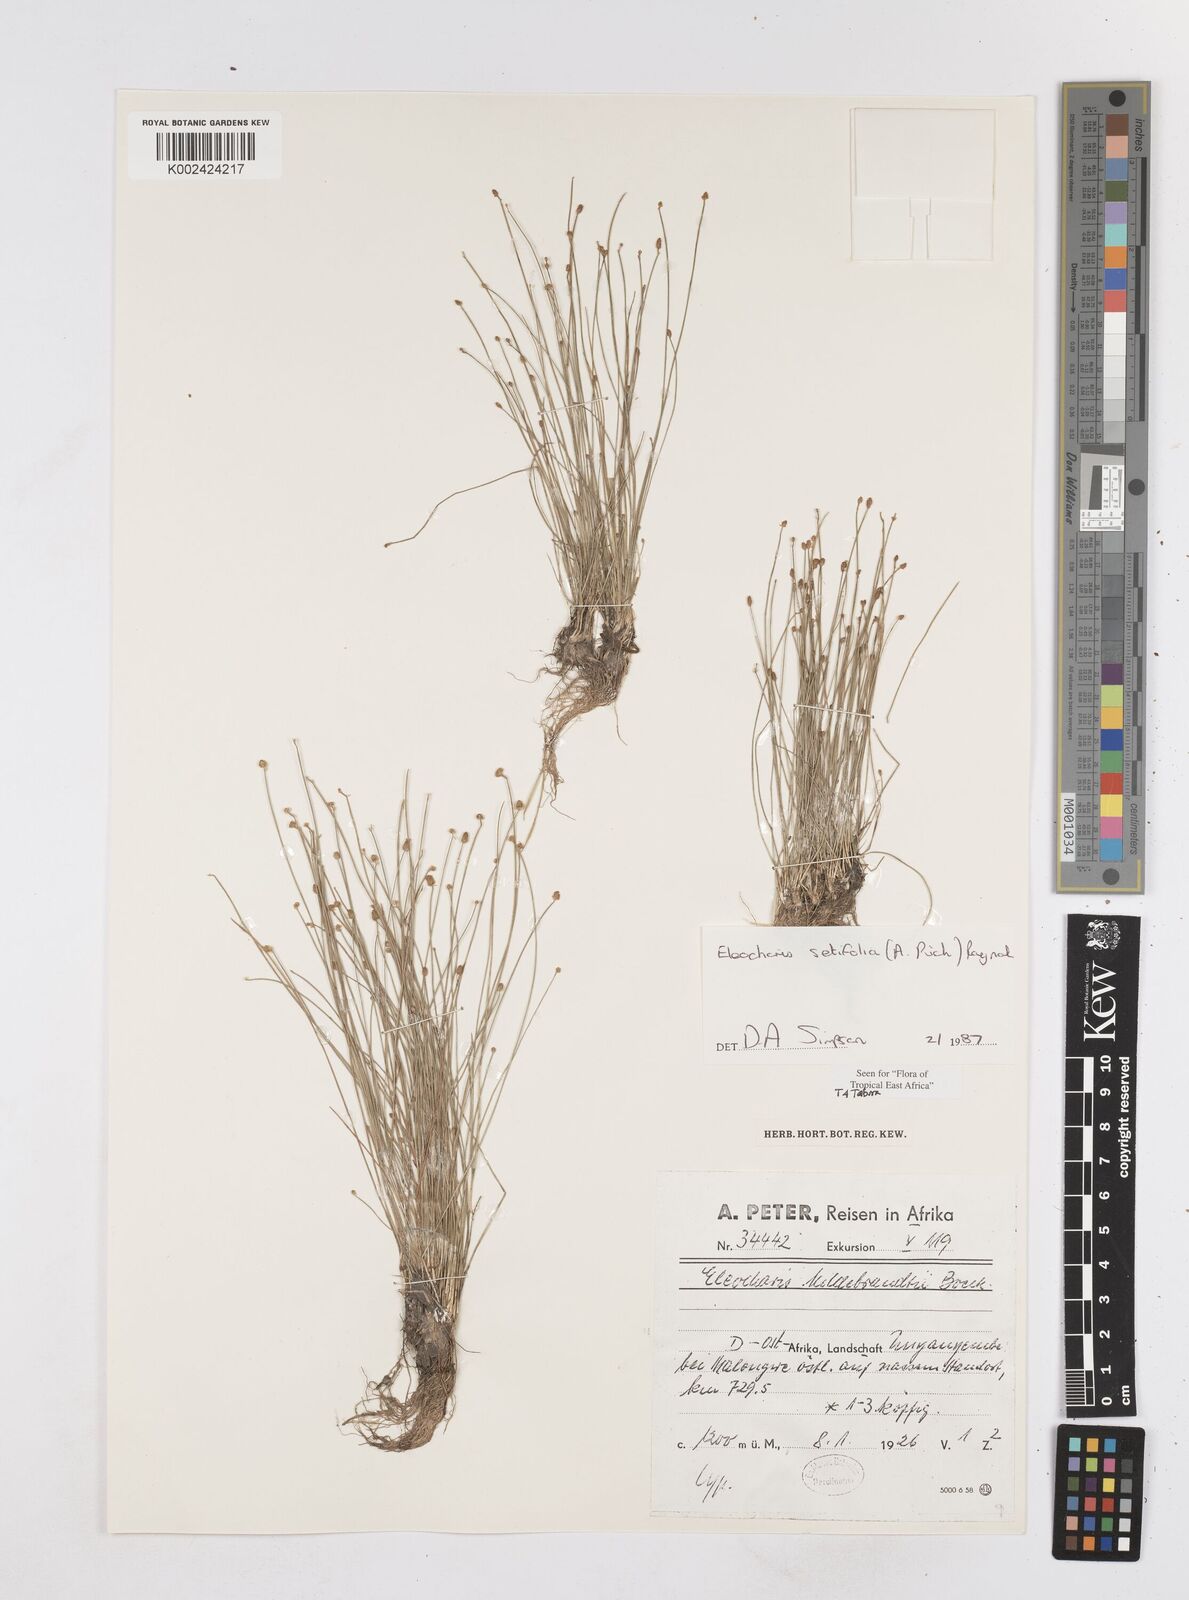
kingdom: Plantae
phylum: Tracheophyta
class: Liliopsida
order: Poales
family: Cyperaceae
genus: Eleocharis
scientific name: Eleocharis setifolia
